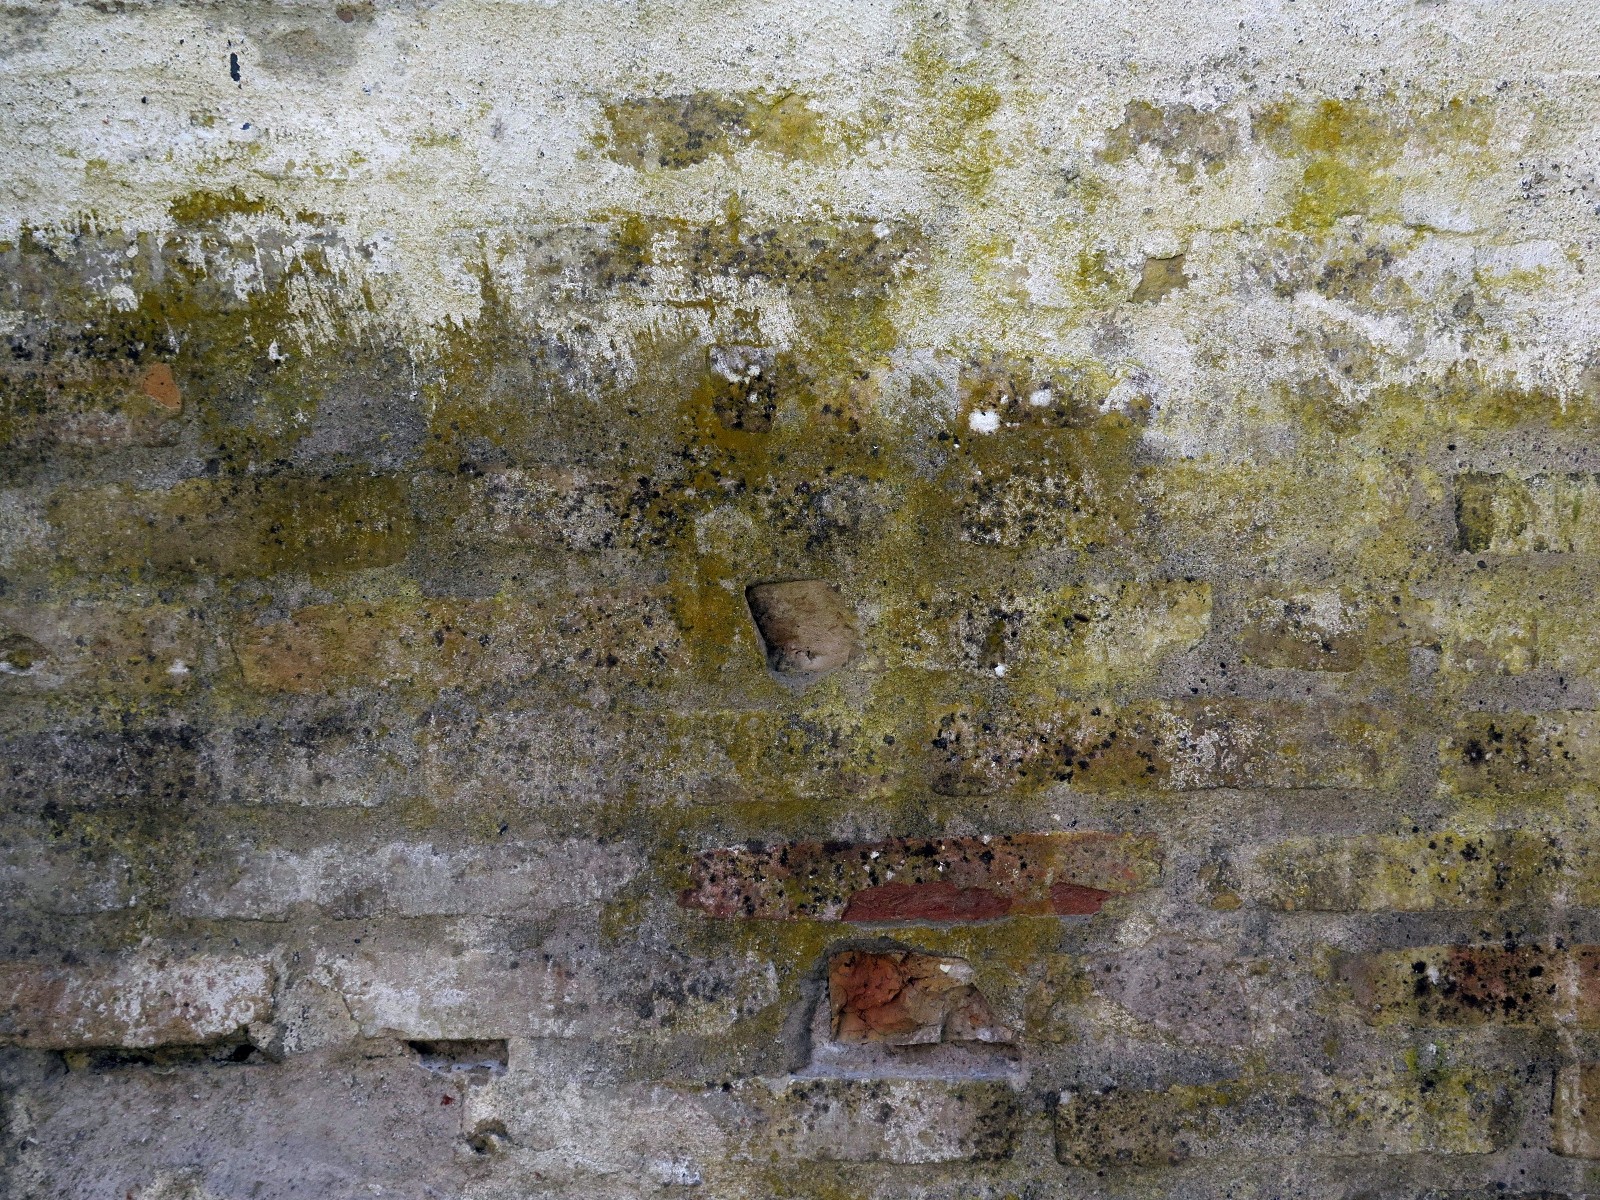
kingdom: Fungi
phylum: Ascomycota
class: Lecanoromycetes
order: Teloschistales
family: Teloschistaceae
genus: Flavoplaca
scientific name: Flavoplaca flavocitrina
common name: grynskællet orangelav
